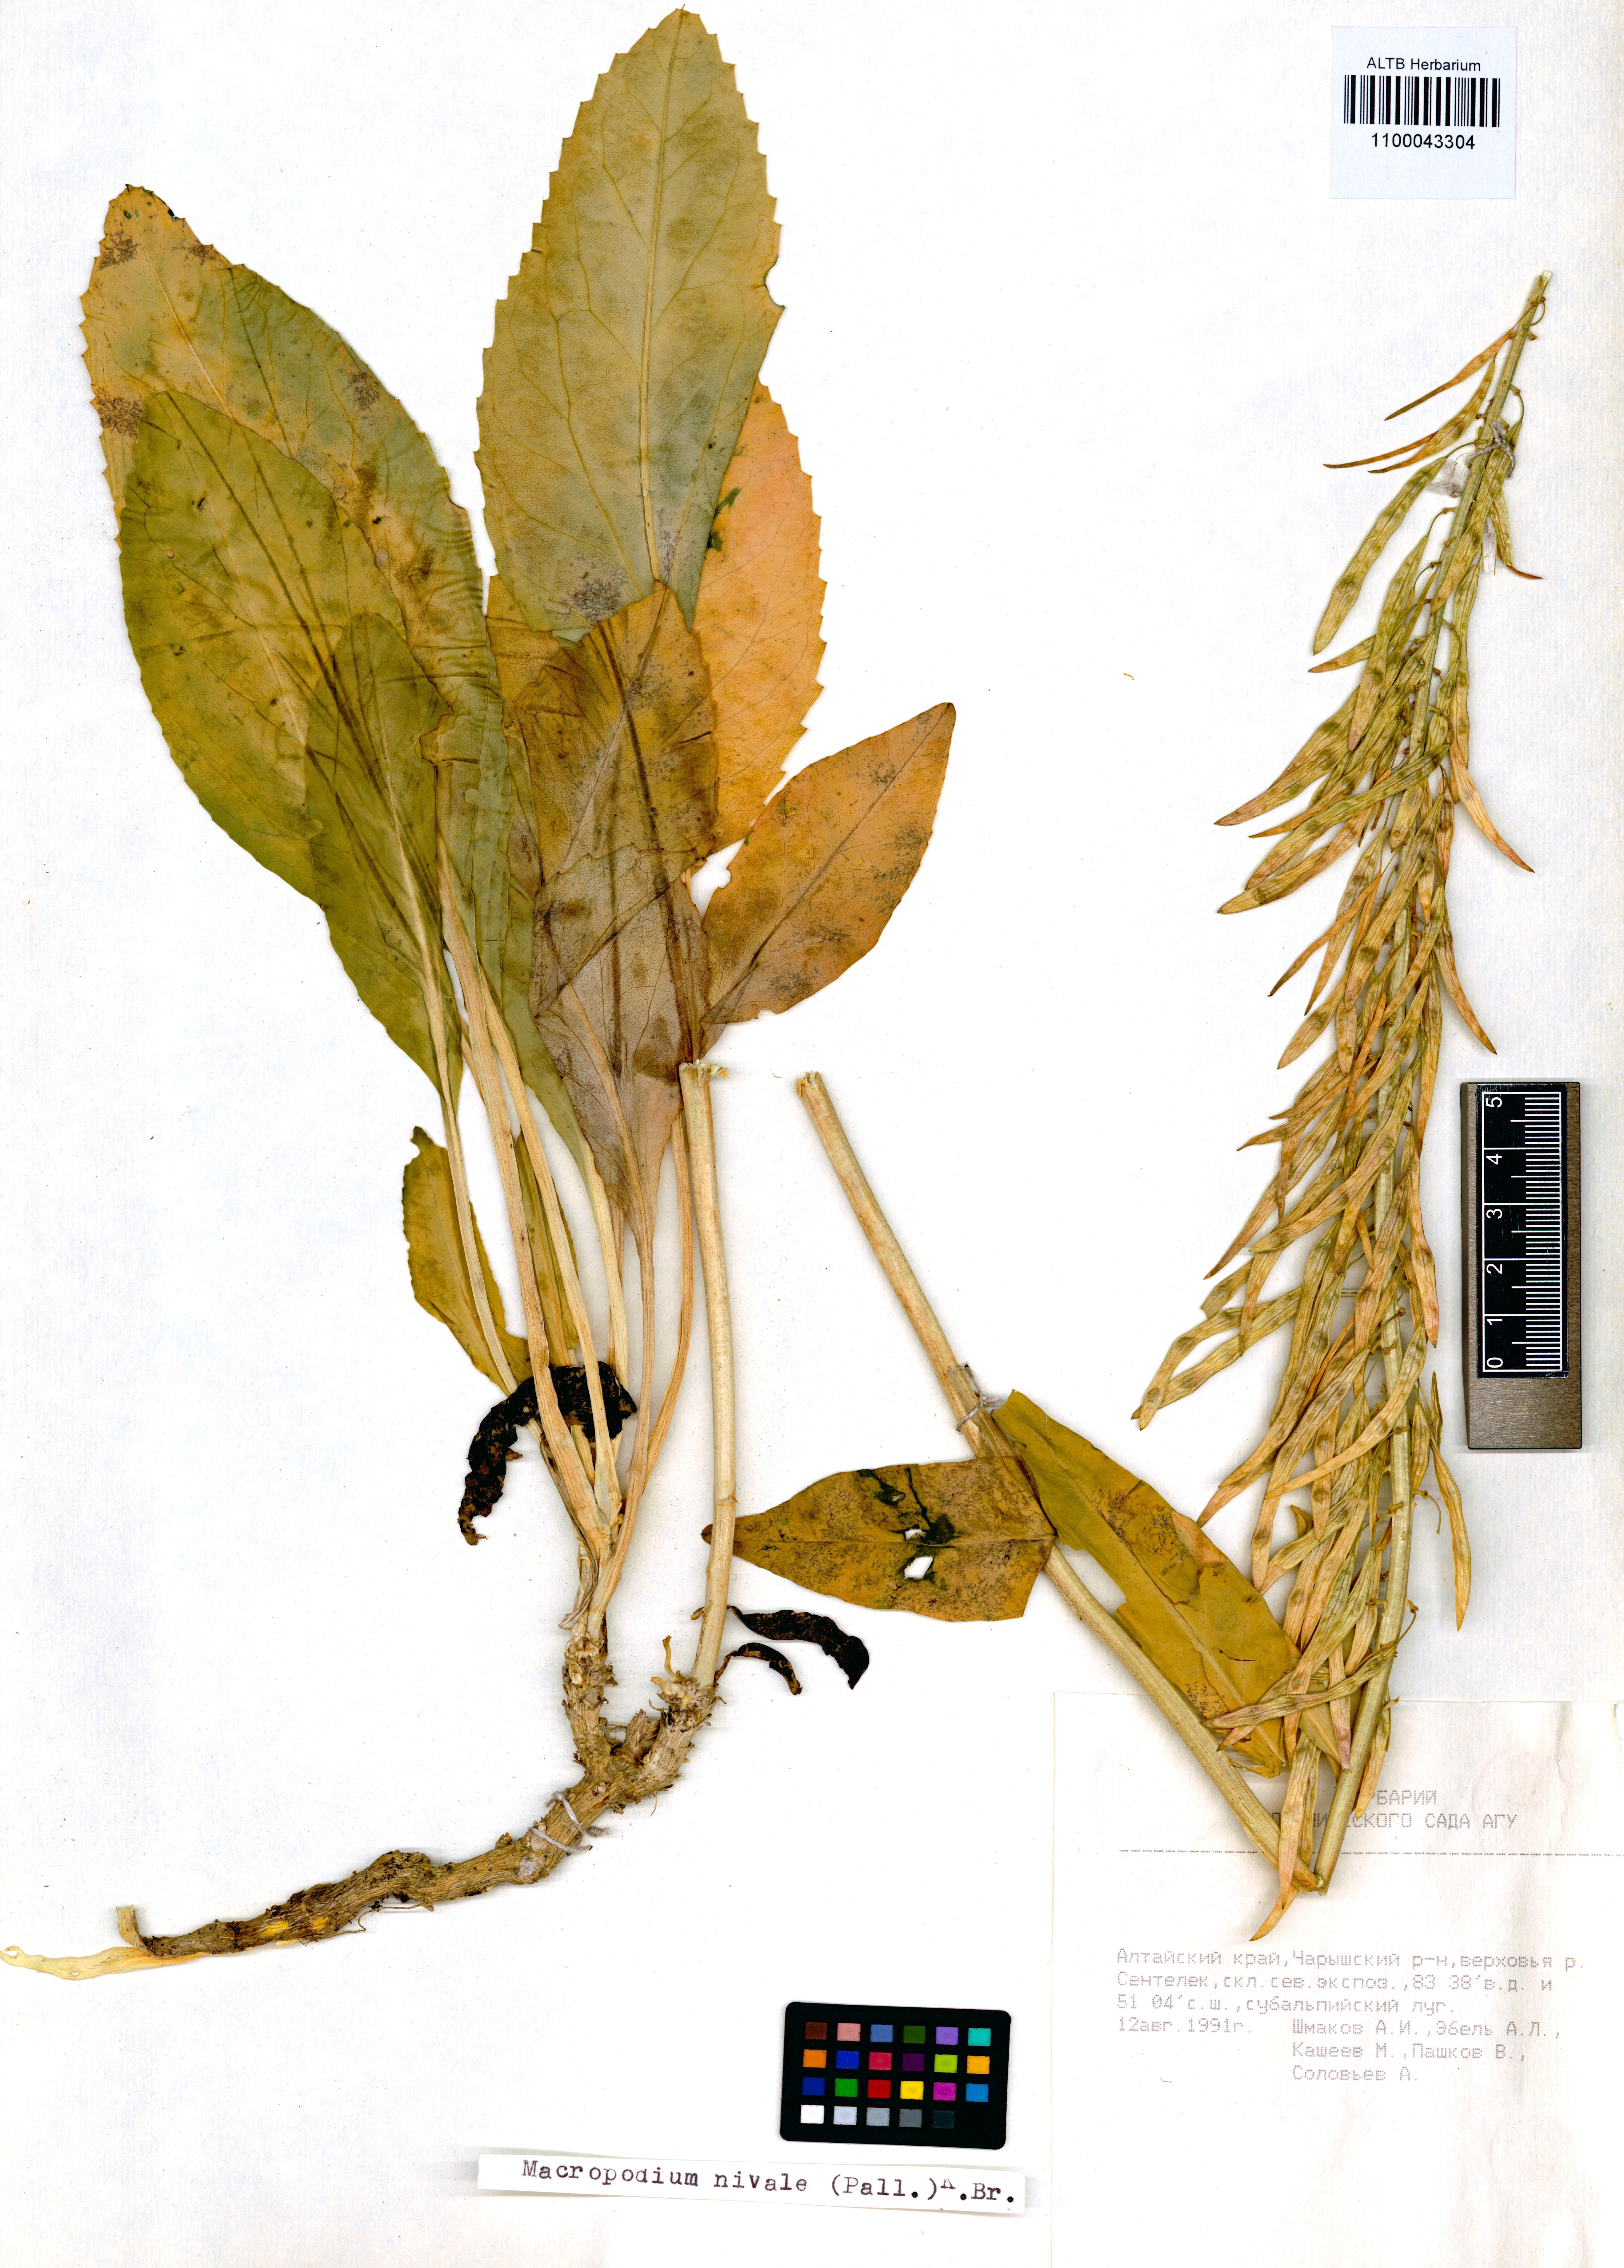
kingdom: Plantae
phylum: Tracheophyta
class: Magnoliopsida
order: Brassicales
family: Brassicaceae
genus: Macropodium
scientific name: Macropodium nivale
